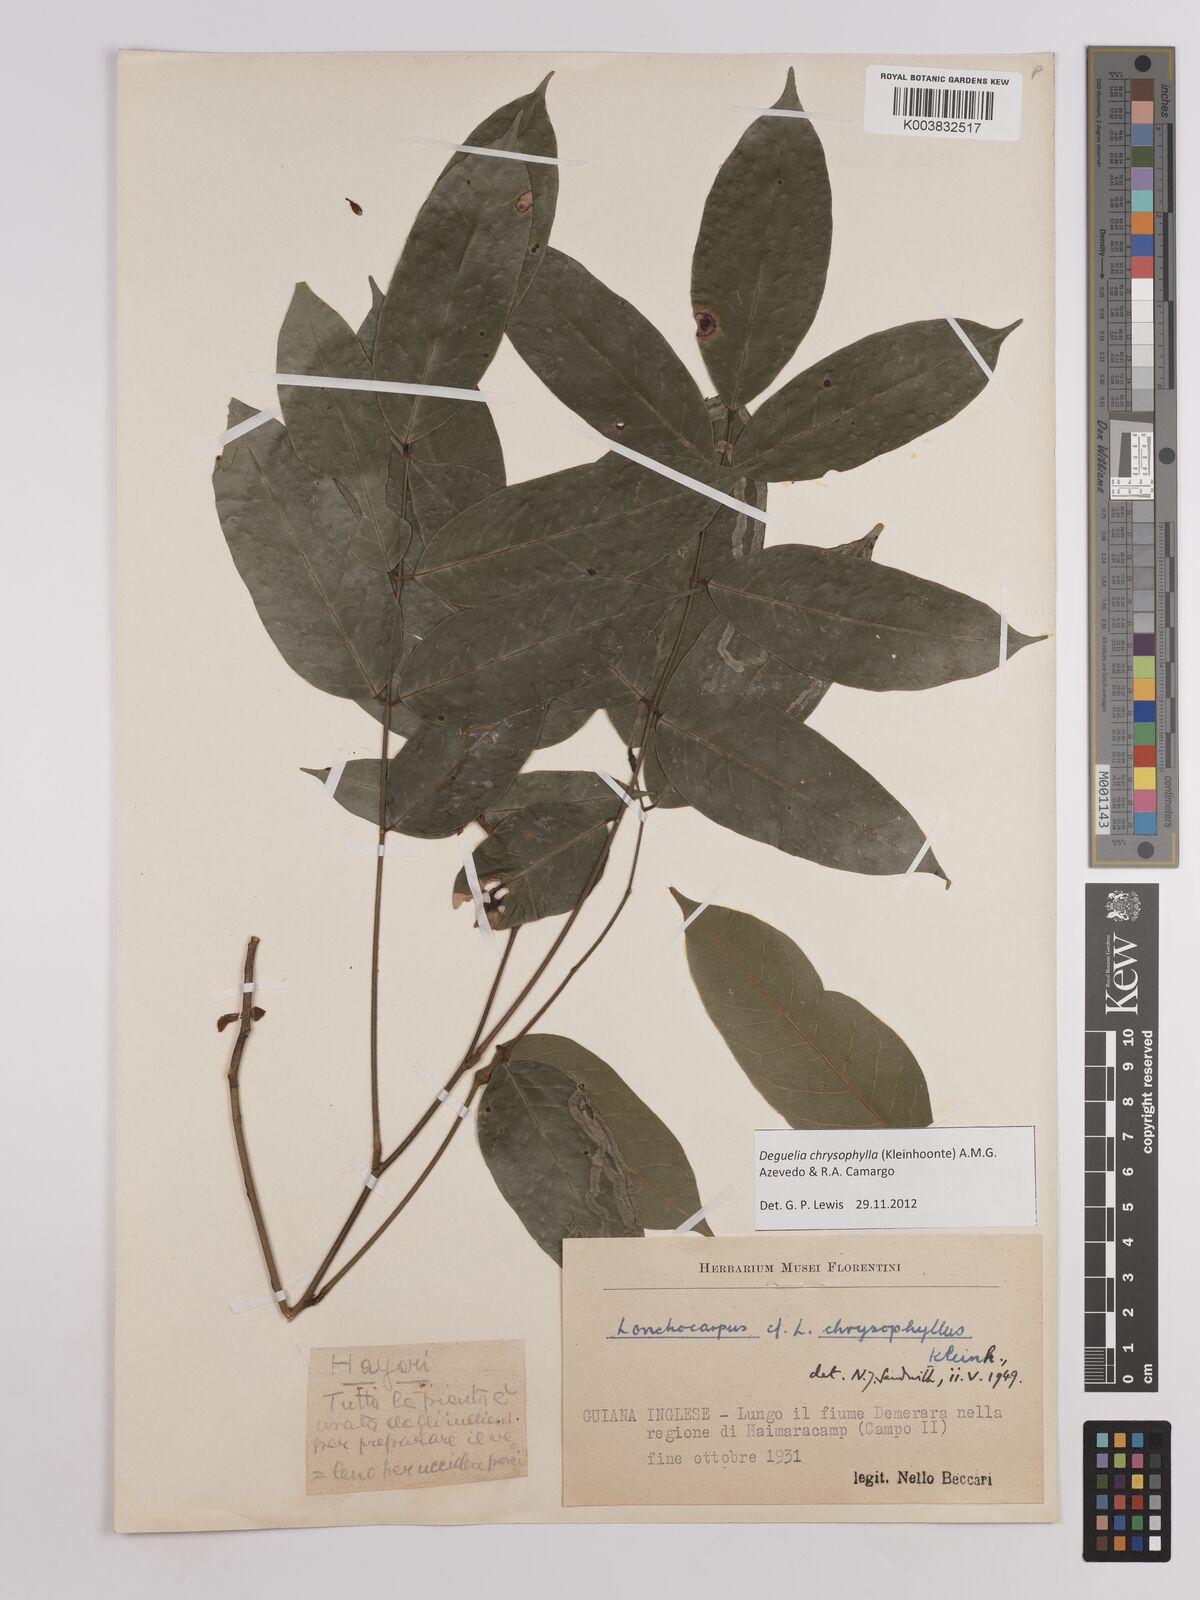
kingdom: Plantae
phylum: Tracheophyta
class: Magnoliopsida
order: Fabales
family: Fabaceae
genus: Deguelia
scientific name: Deguelia chrysophylla
